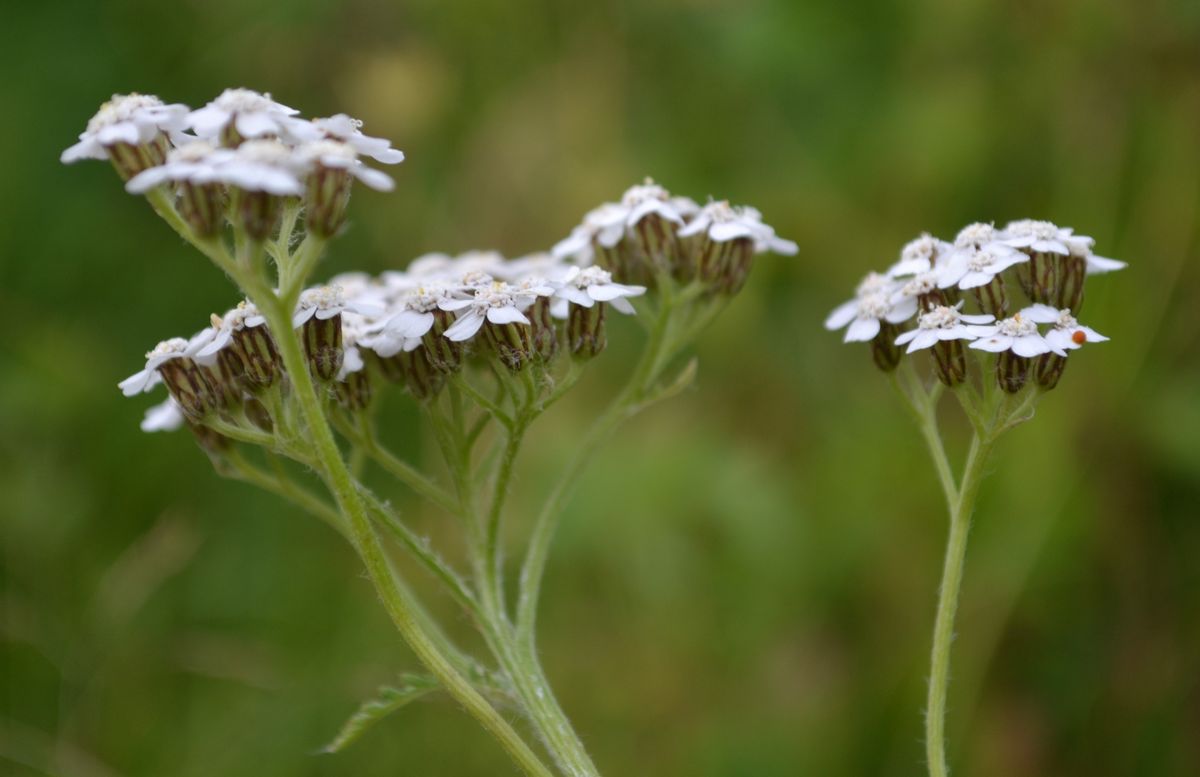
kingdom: Plantae
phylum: Tracheophyta
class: Magnoliopsida
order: Asterales
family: Asteraceae
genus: Achillea
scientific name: Achillea apiculata
